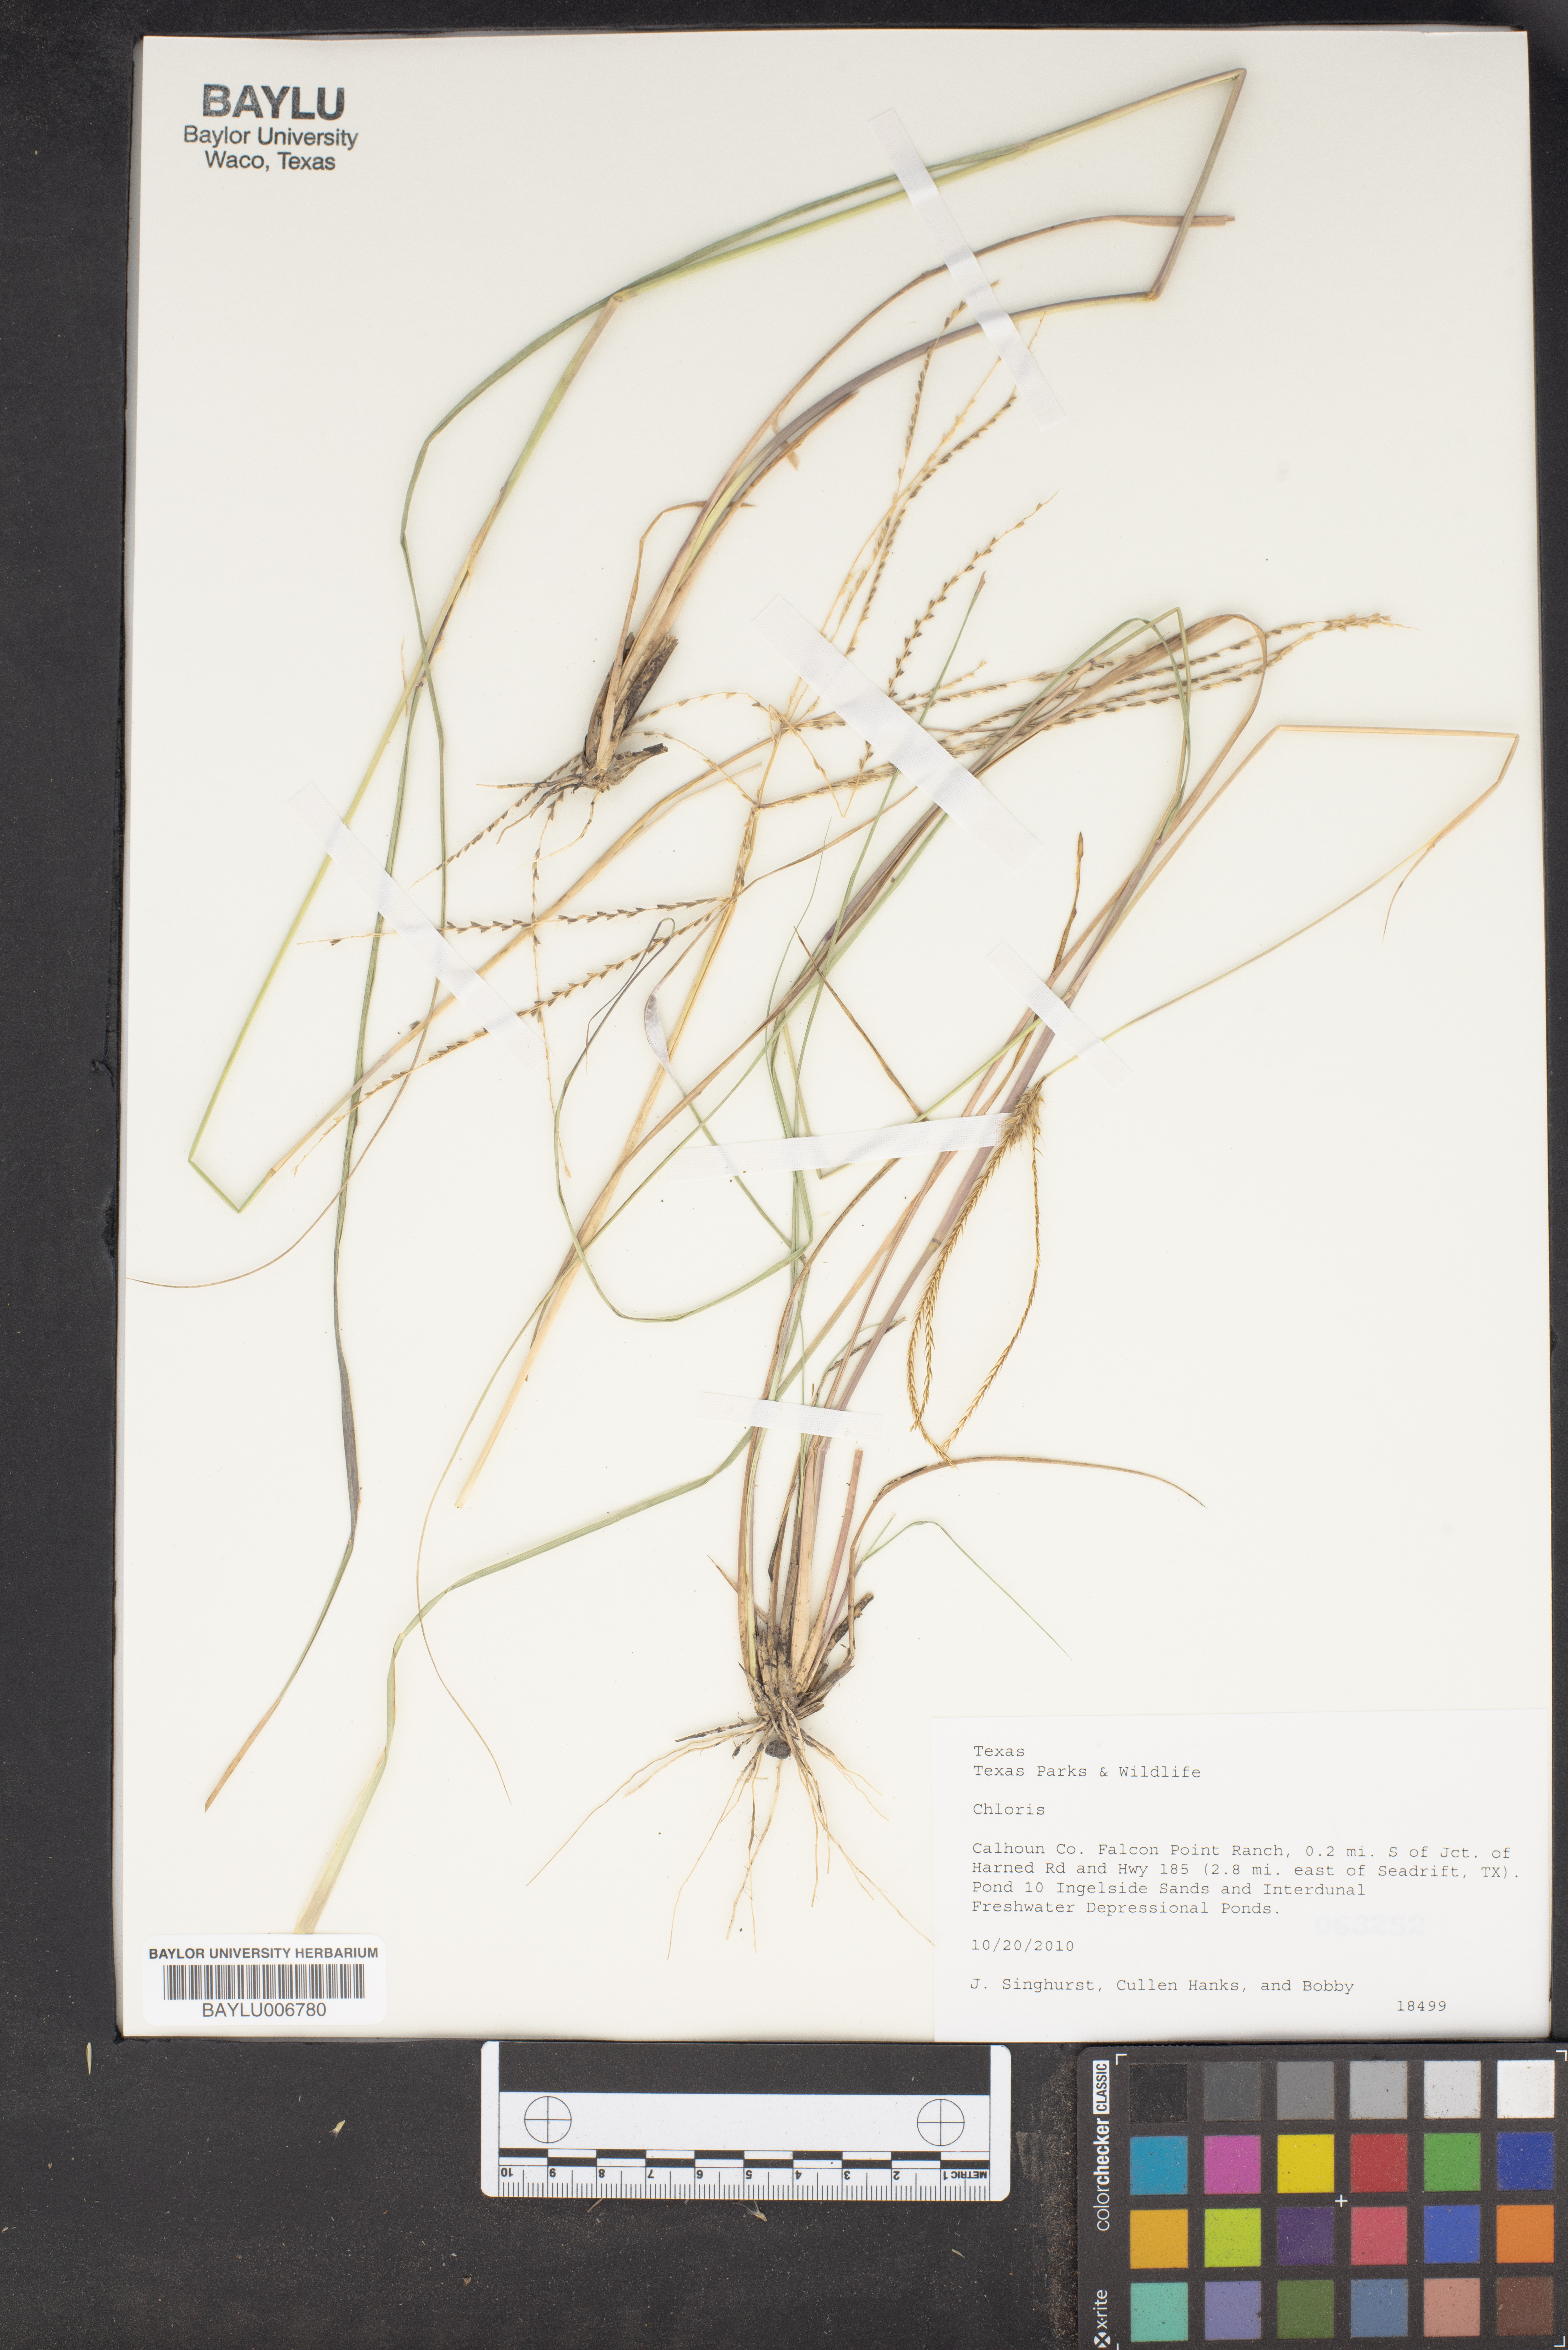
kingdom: Plantae
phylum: Tracheophyta
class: Liliopsida
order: Poales
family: Poaceae
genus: Chloris
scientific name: Chloris
